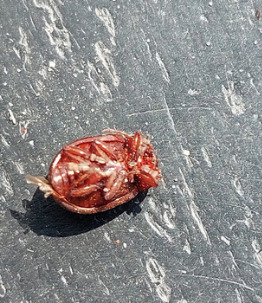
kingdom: Animalia
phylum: Arthropoda
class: Insecta
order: Coleoptera
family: Chrysomelidae
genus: Chrysolina
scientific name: Chrysolina staphylaea
